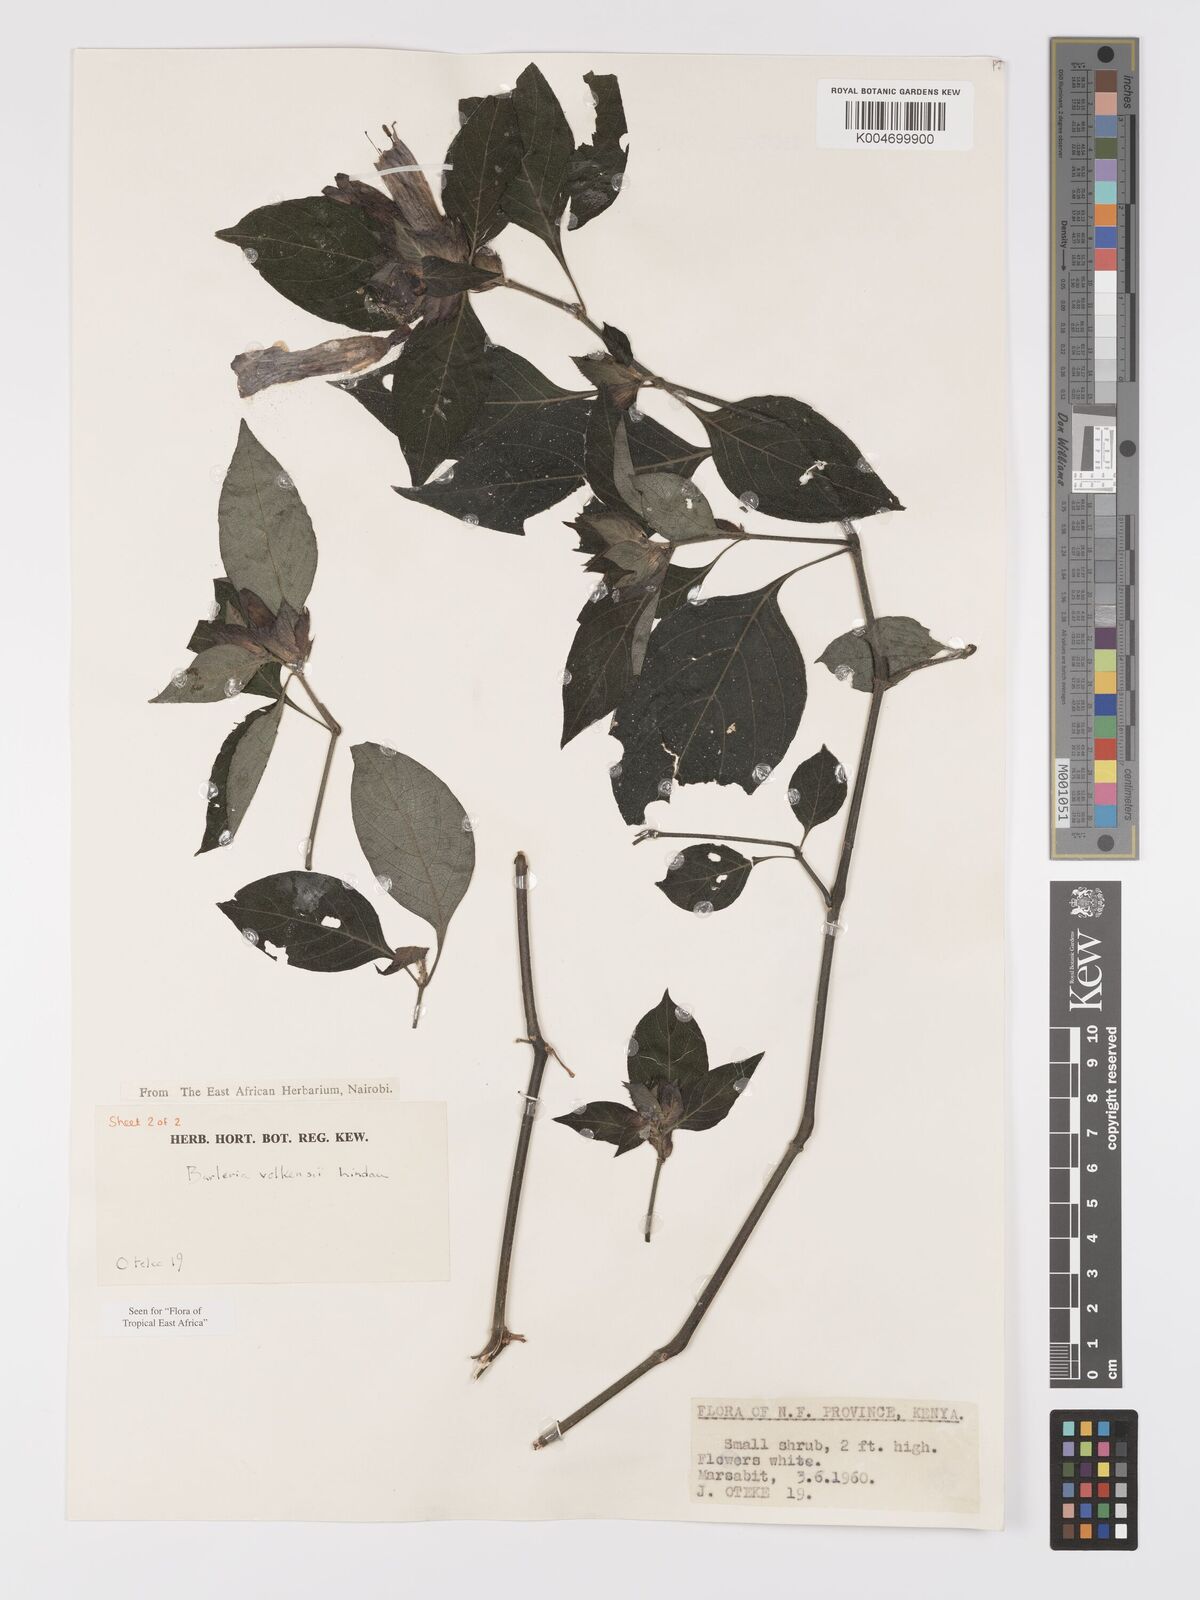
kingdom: Plantae
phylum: Tracheophyta
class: Magnoliopsida
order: Lamiales
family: Acanthaceae
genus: Barleria
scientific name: Barleria volkensii
